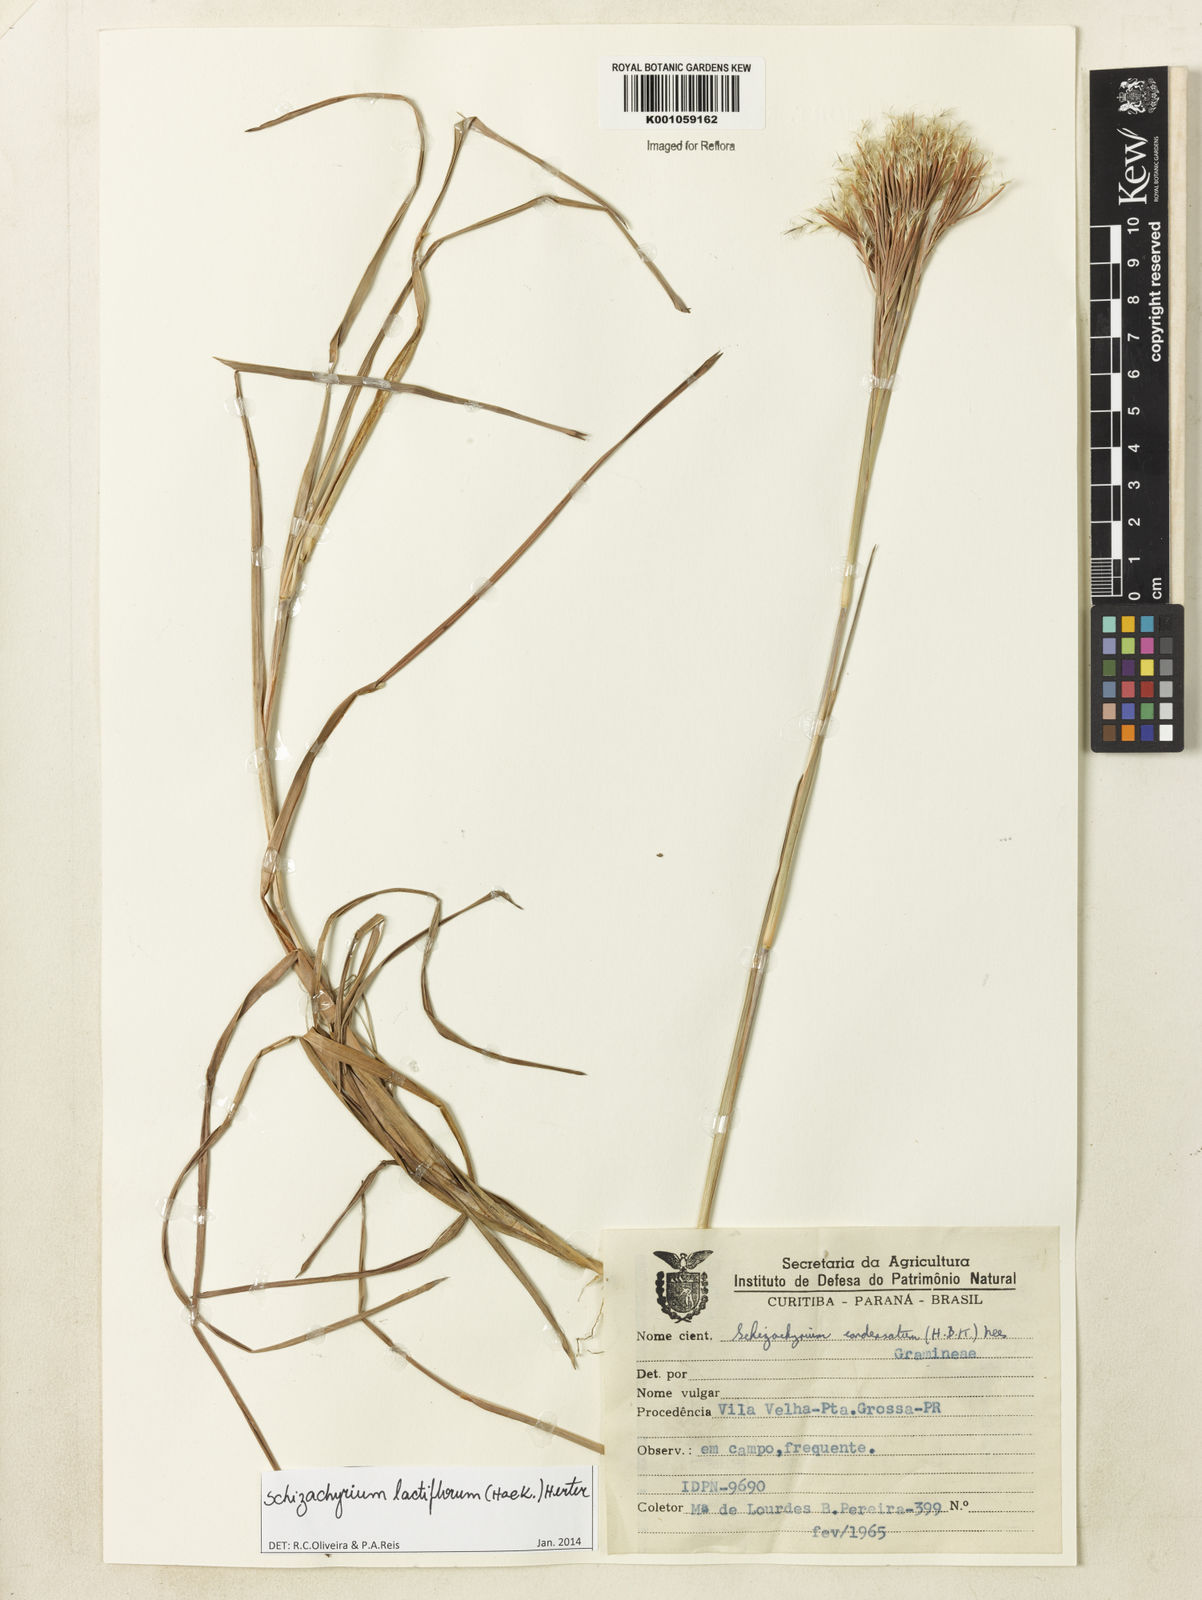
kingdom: Plantae
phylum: Tracheophyta
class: Liliopsida
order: Poales
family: Poaceae
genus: Schizachyrium
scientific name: Schizachyrium condensatum
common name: Bush beardgrass
